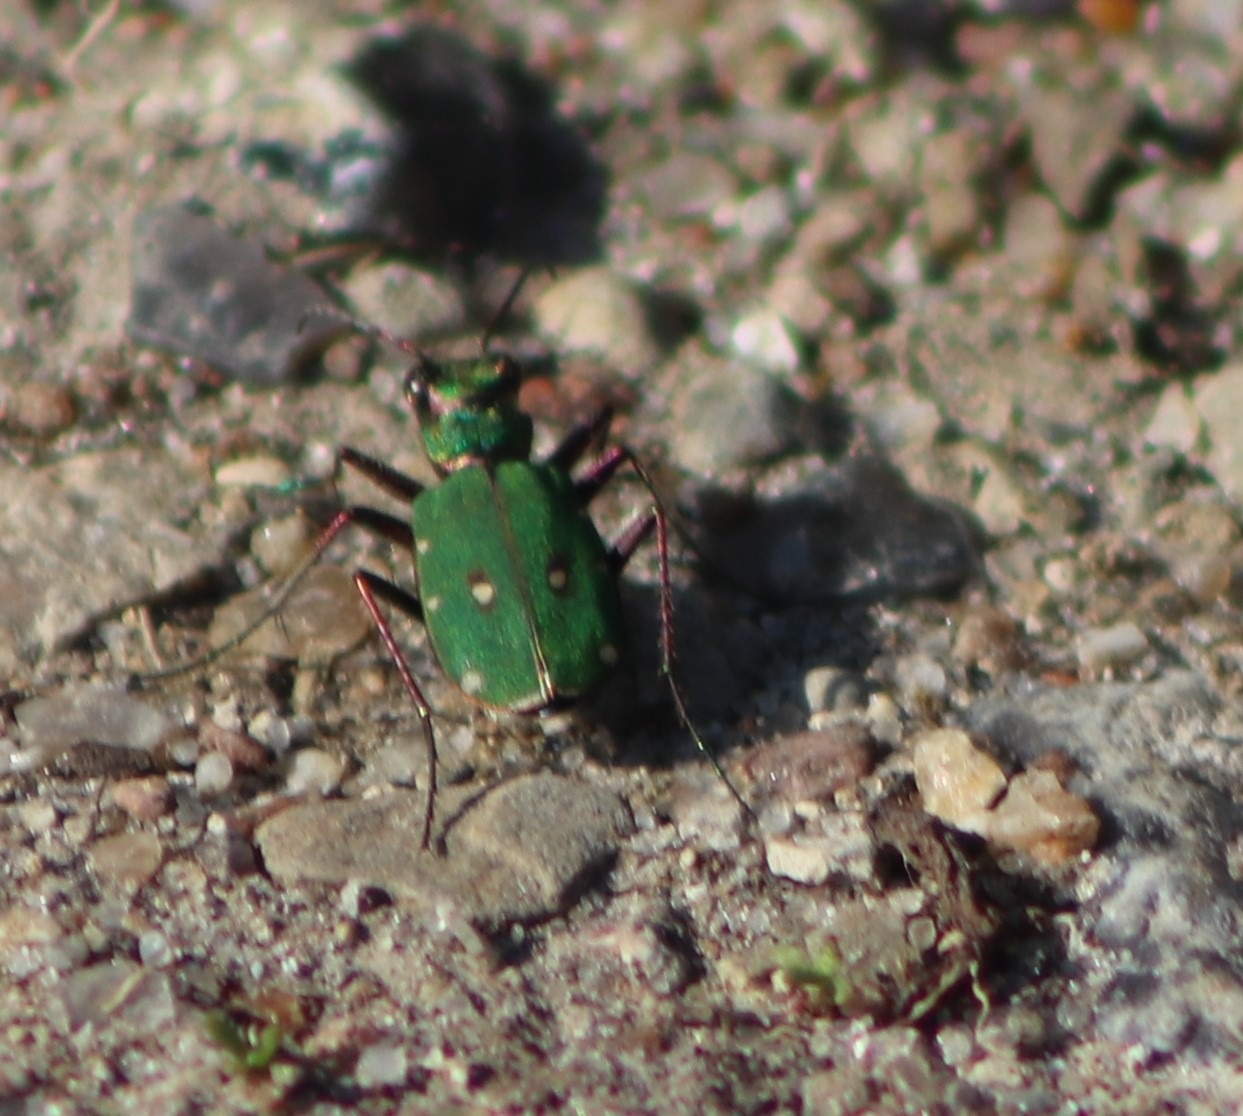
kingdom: Animalia
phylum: Arthropoda
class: Insecta
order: Coleoptera
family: Carabidae
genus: Cicindela
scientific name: Cicindela campestris
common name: Grøn sandspringer
